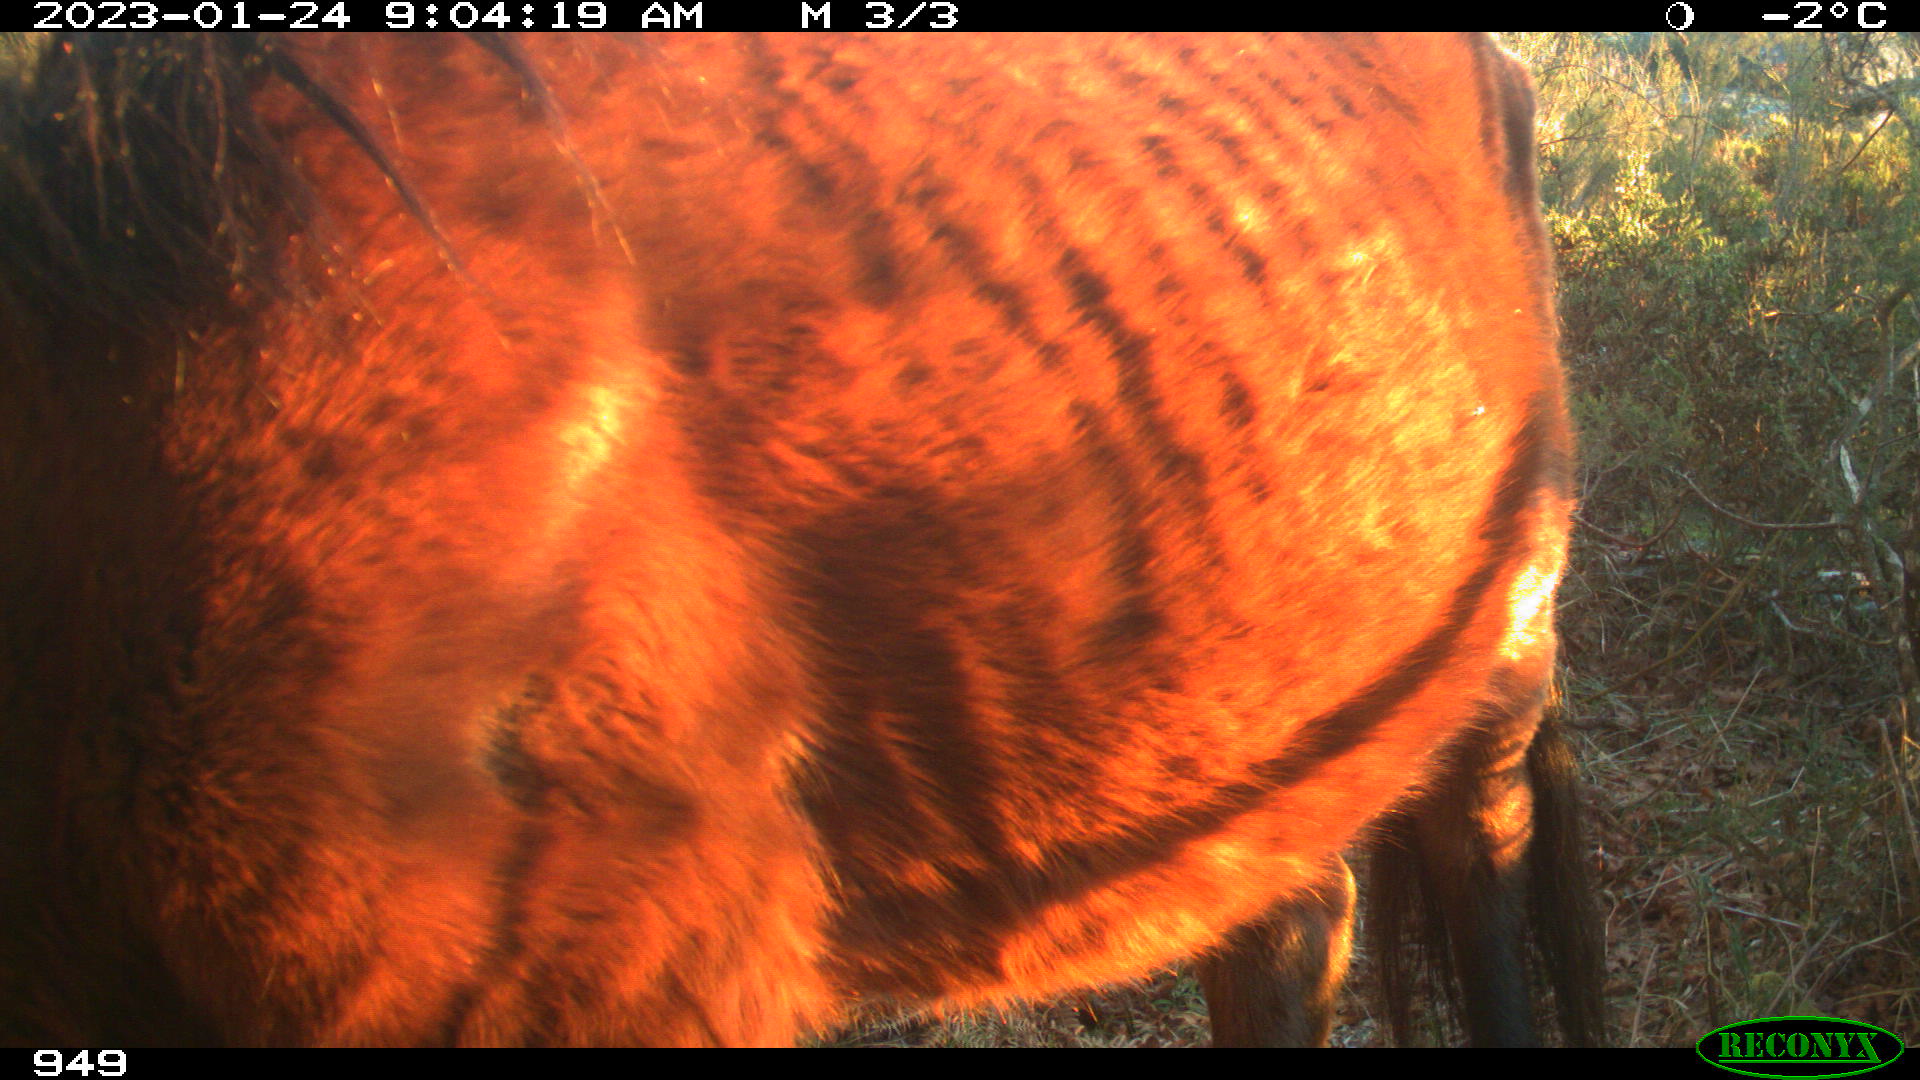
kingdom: Animalia
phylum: Chordata
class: Mammalia
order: Perissodactyla
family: Equidae
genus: Equus
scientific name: Equus caballus
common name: Horse
